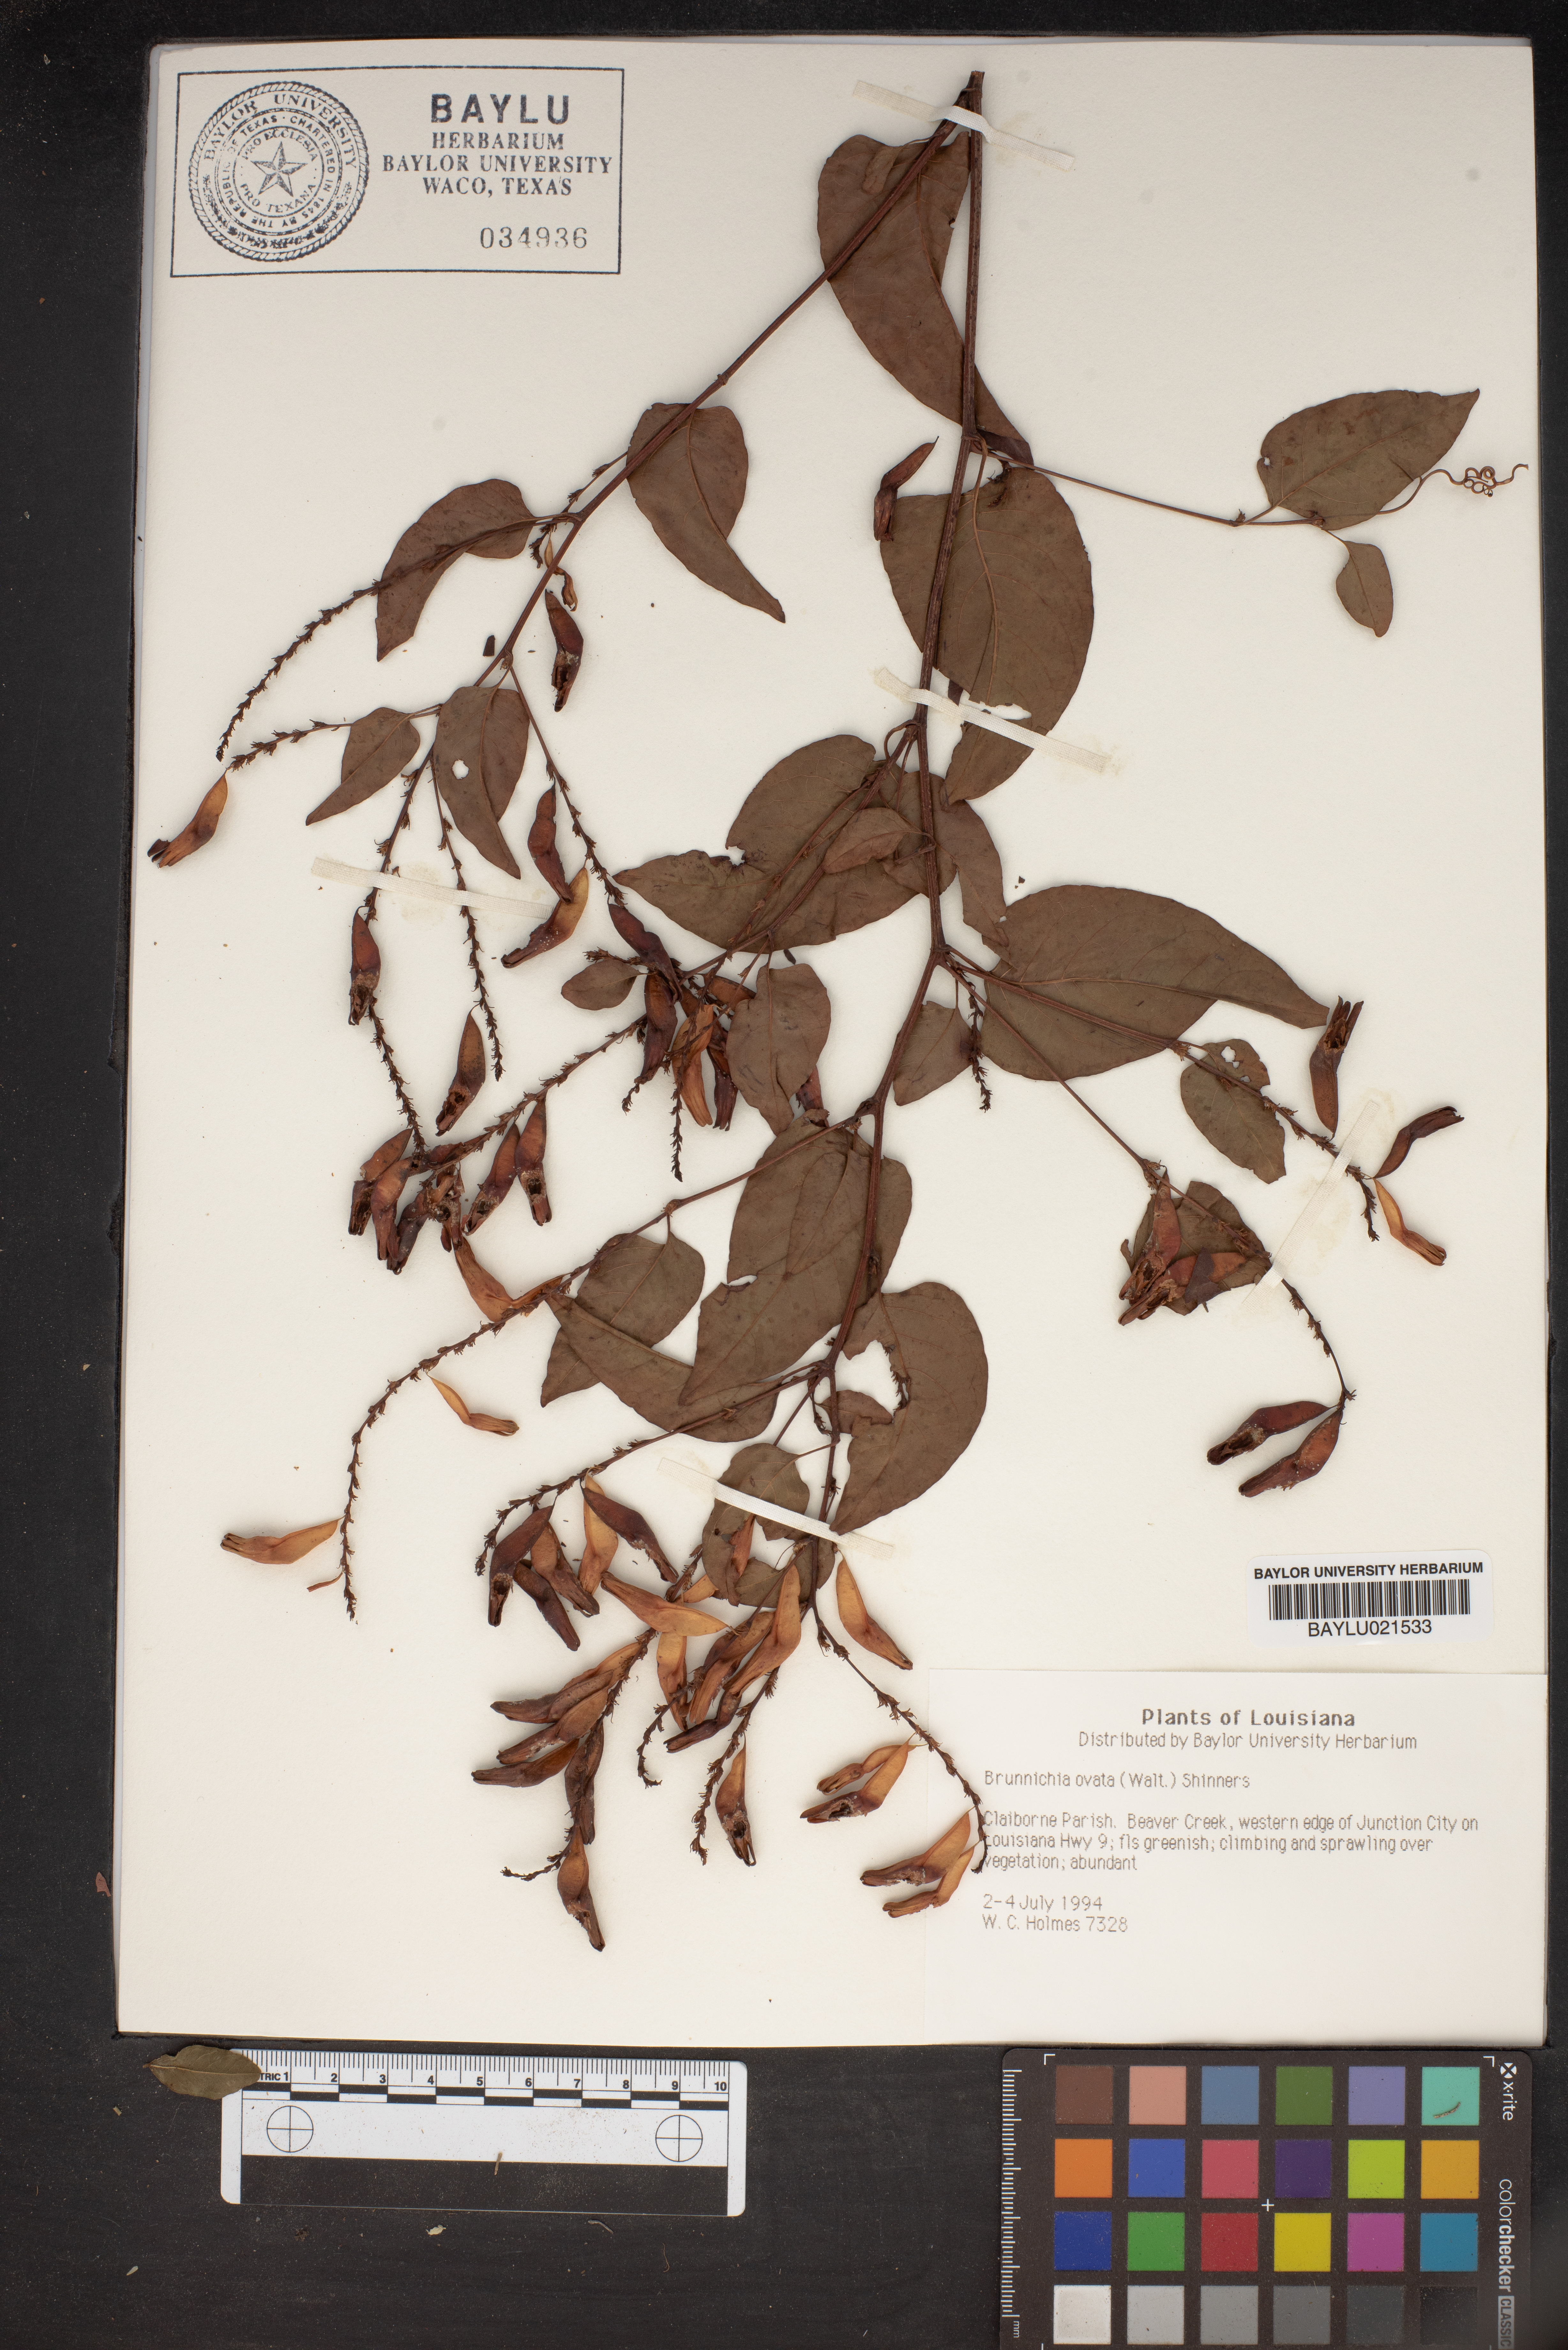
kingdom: Plantae
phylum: Tracheophyta
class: Magnoliopsida
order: Caryophyllales
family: Polygonaceae
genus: Brunnichia
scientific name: Brunnichia ovata
